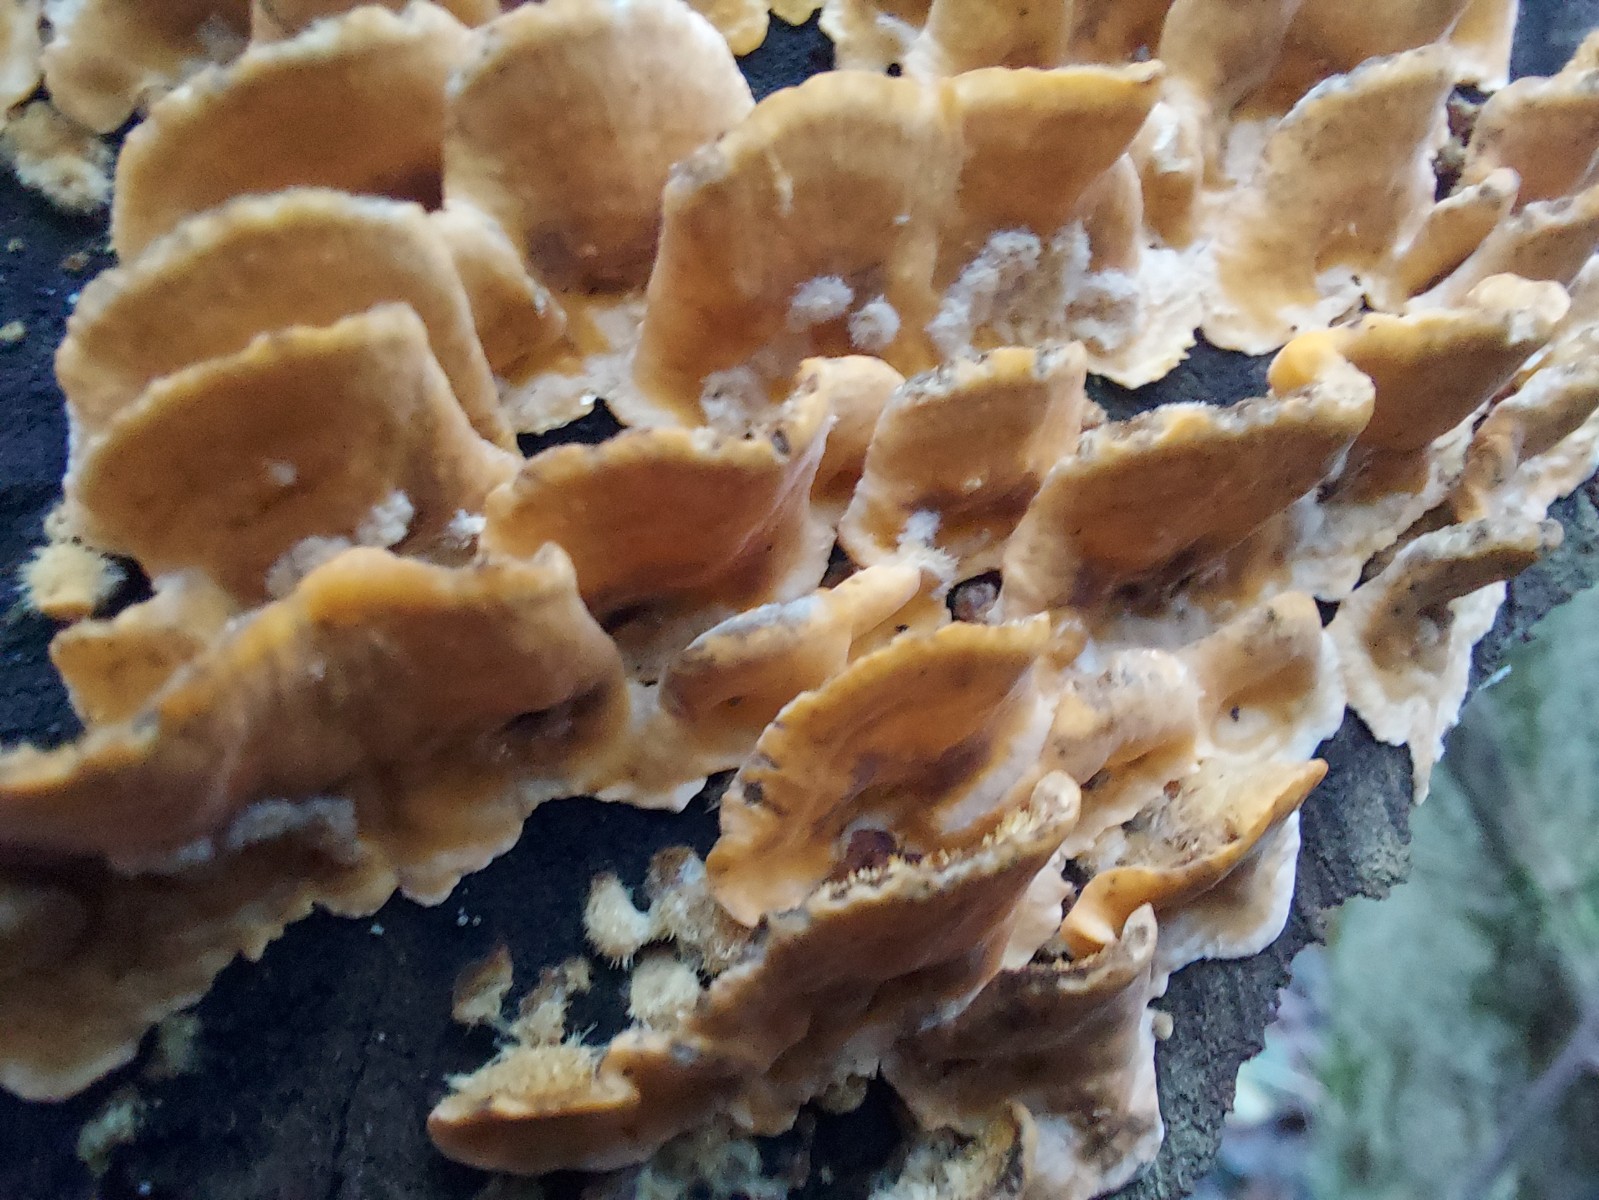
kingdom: Fungi
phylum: Basidiomycota
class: Agaricomycetes
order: Russulales
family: Stereaceae
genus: Stereum
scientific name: Stereum hirsutum
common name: håret lædersvamp
